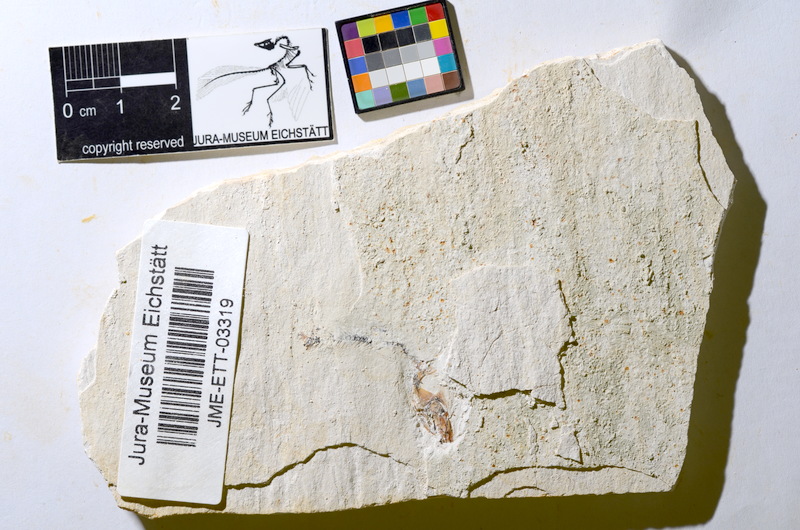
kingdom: Animalia
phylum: Chordata
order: Salmoniformes
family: Orthogonikleithridae
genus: Orthogonikleithrus
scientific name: Orthogonikleithrus hoelli
